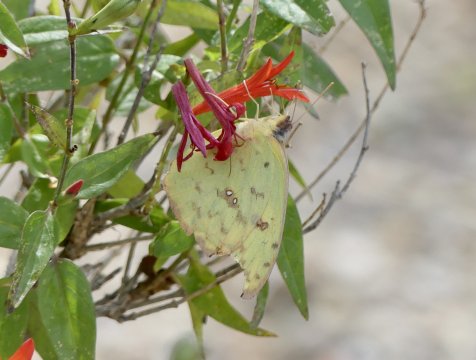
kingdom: Animalia
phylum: Arthropoda
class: Insecta
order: Lepidoptera
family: Pieridae
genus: Phoebis
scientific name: Phoebis sennae
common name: Cloudless Sulphur
